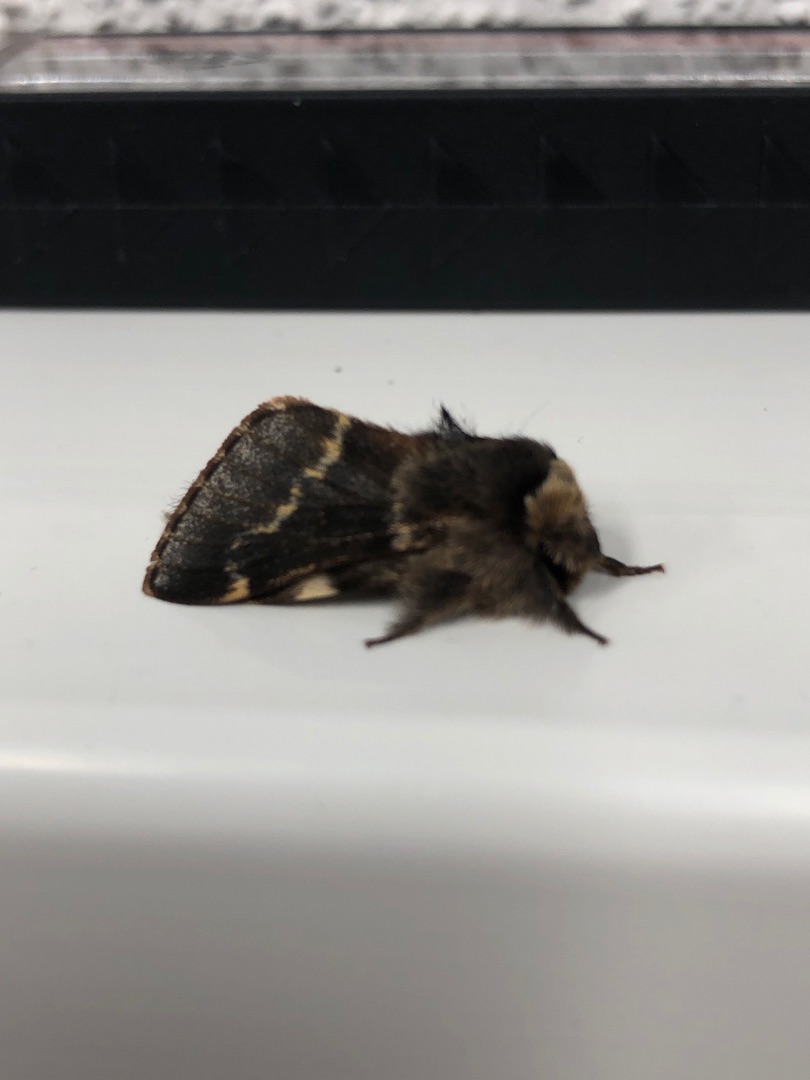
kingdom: Animalia
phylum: Arthropoda
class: Insecta
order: Lepidoptera
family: Lasiocampidae
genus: Poecilocampa
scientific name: Poecilocampa populi
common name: Poppelspinder
